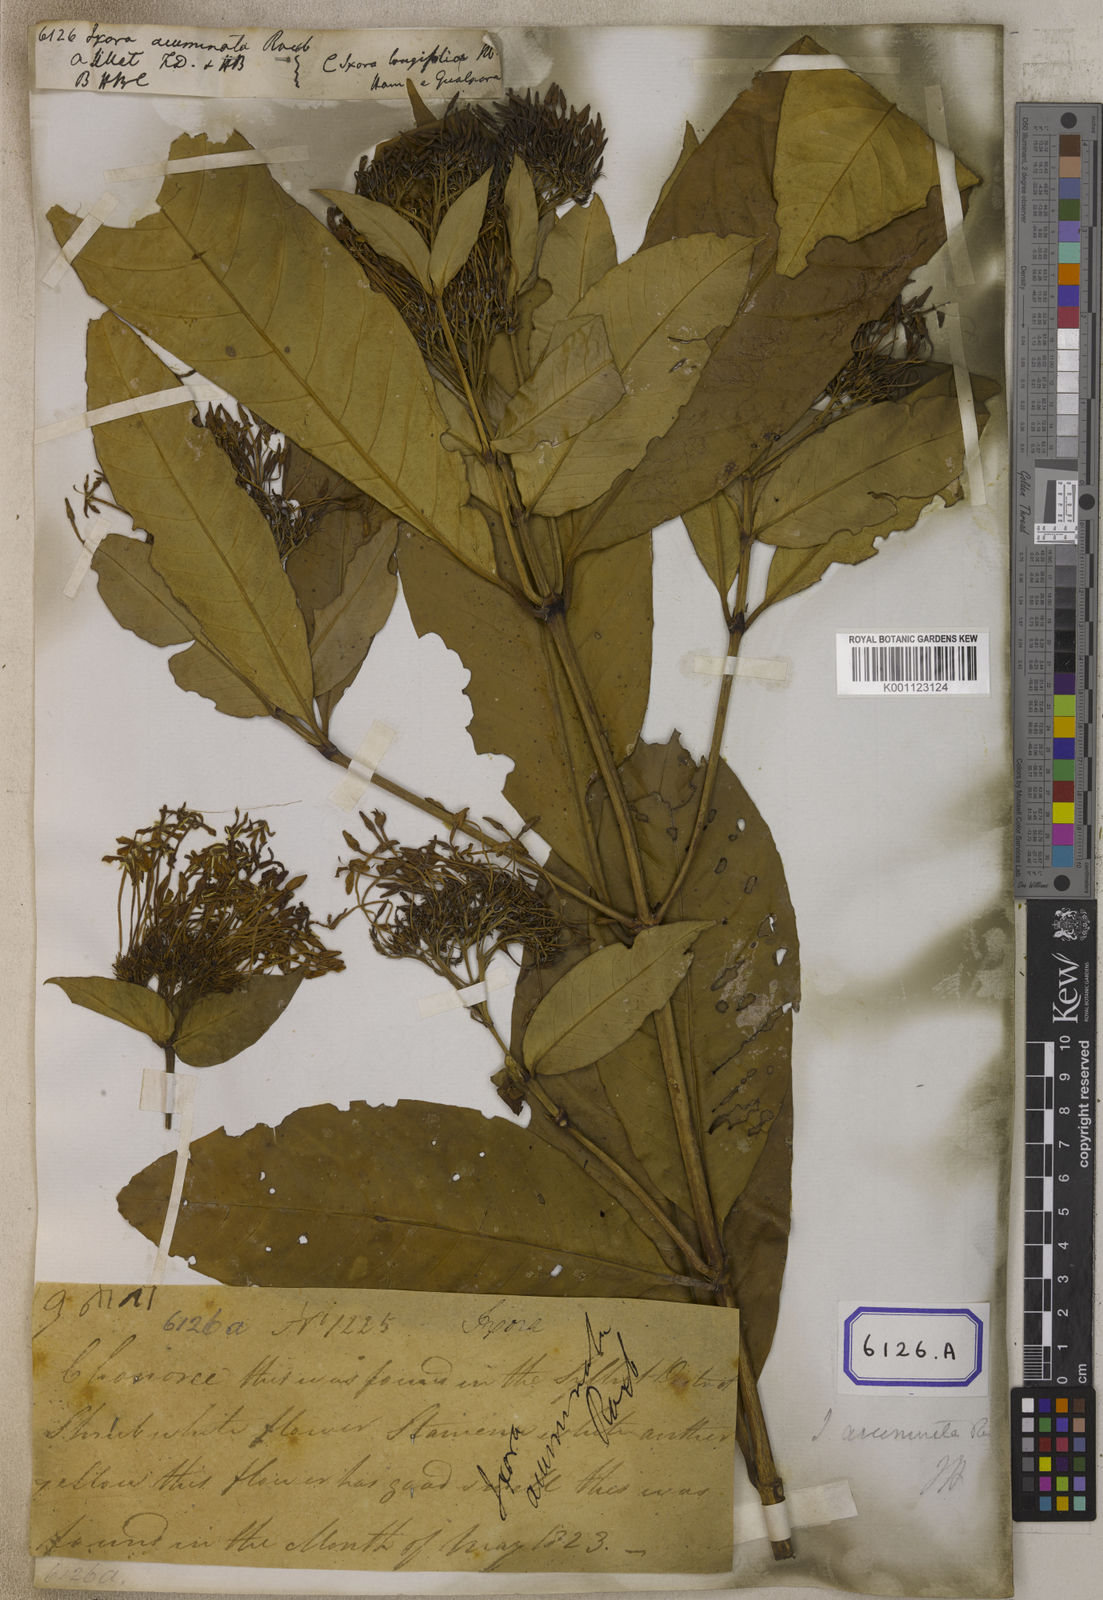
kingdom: Plantae
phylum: Tracheophyta
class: Magnoliopsida
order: Gentianales
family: Rubiaceae
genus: Ixora
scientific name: Ixora acuminata
